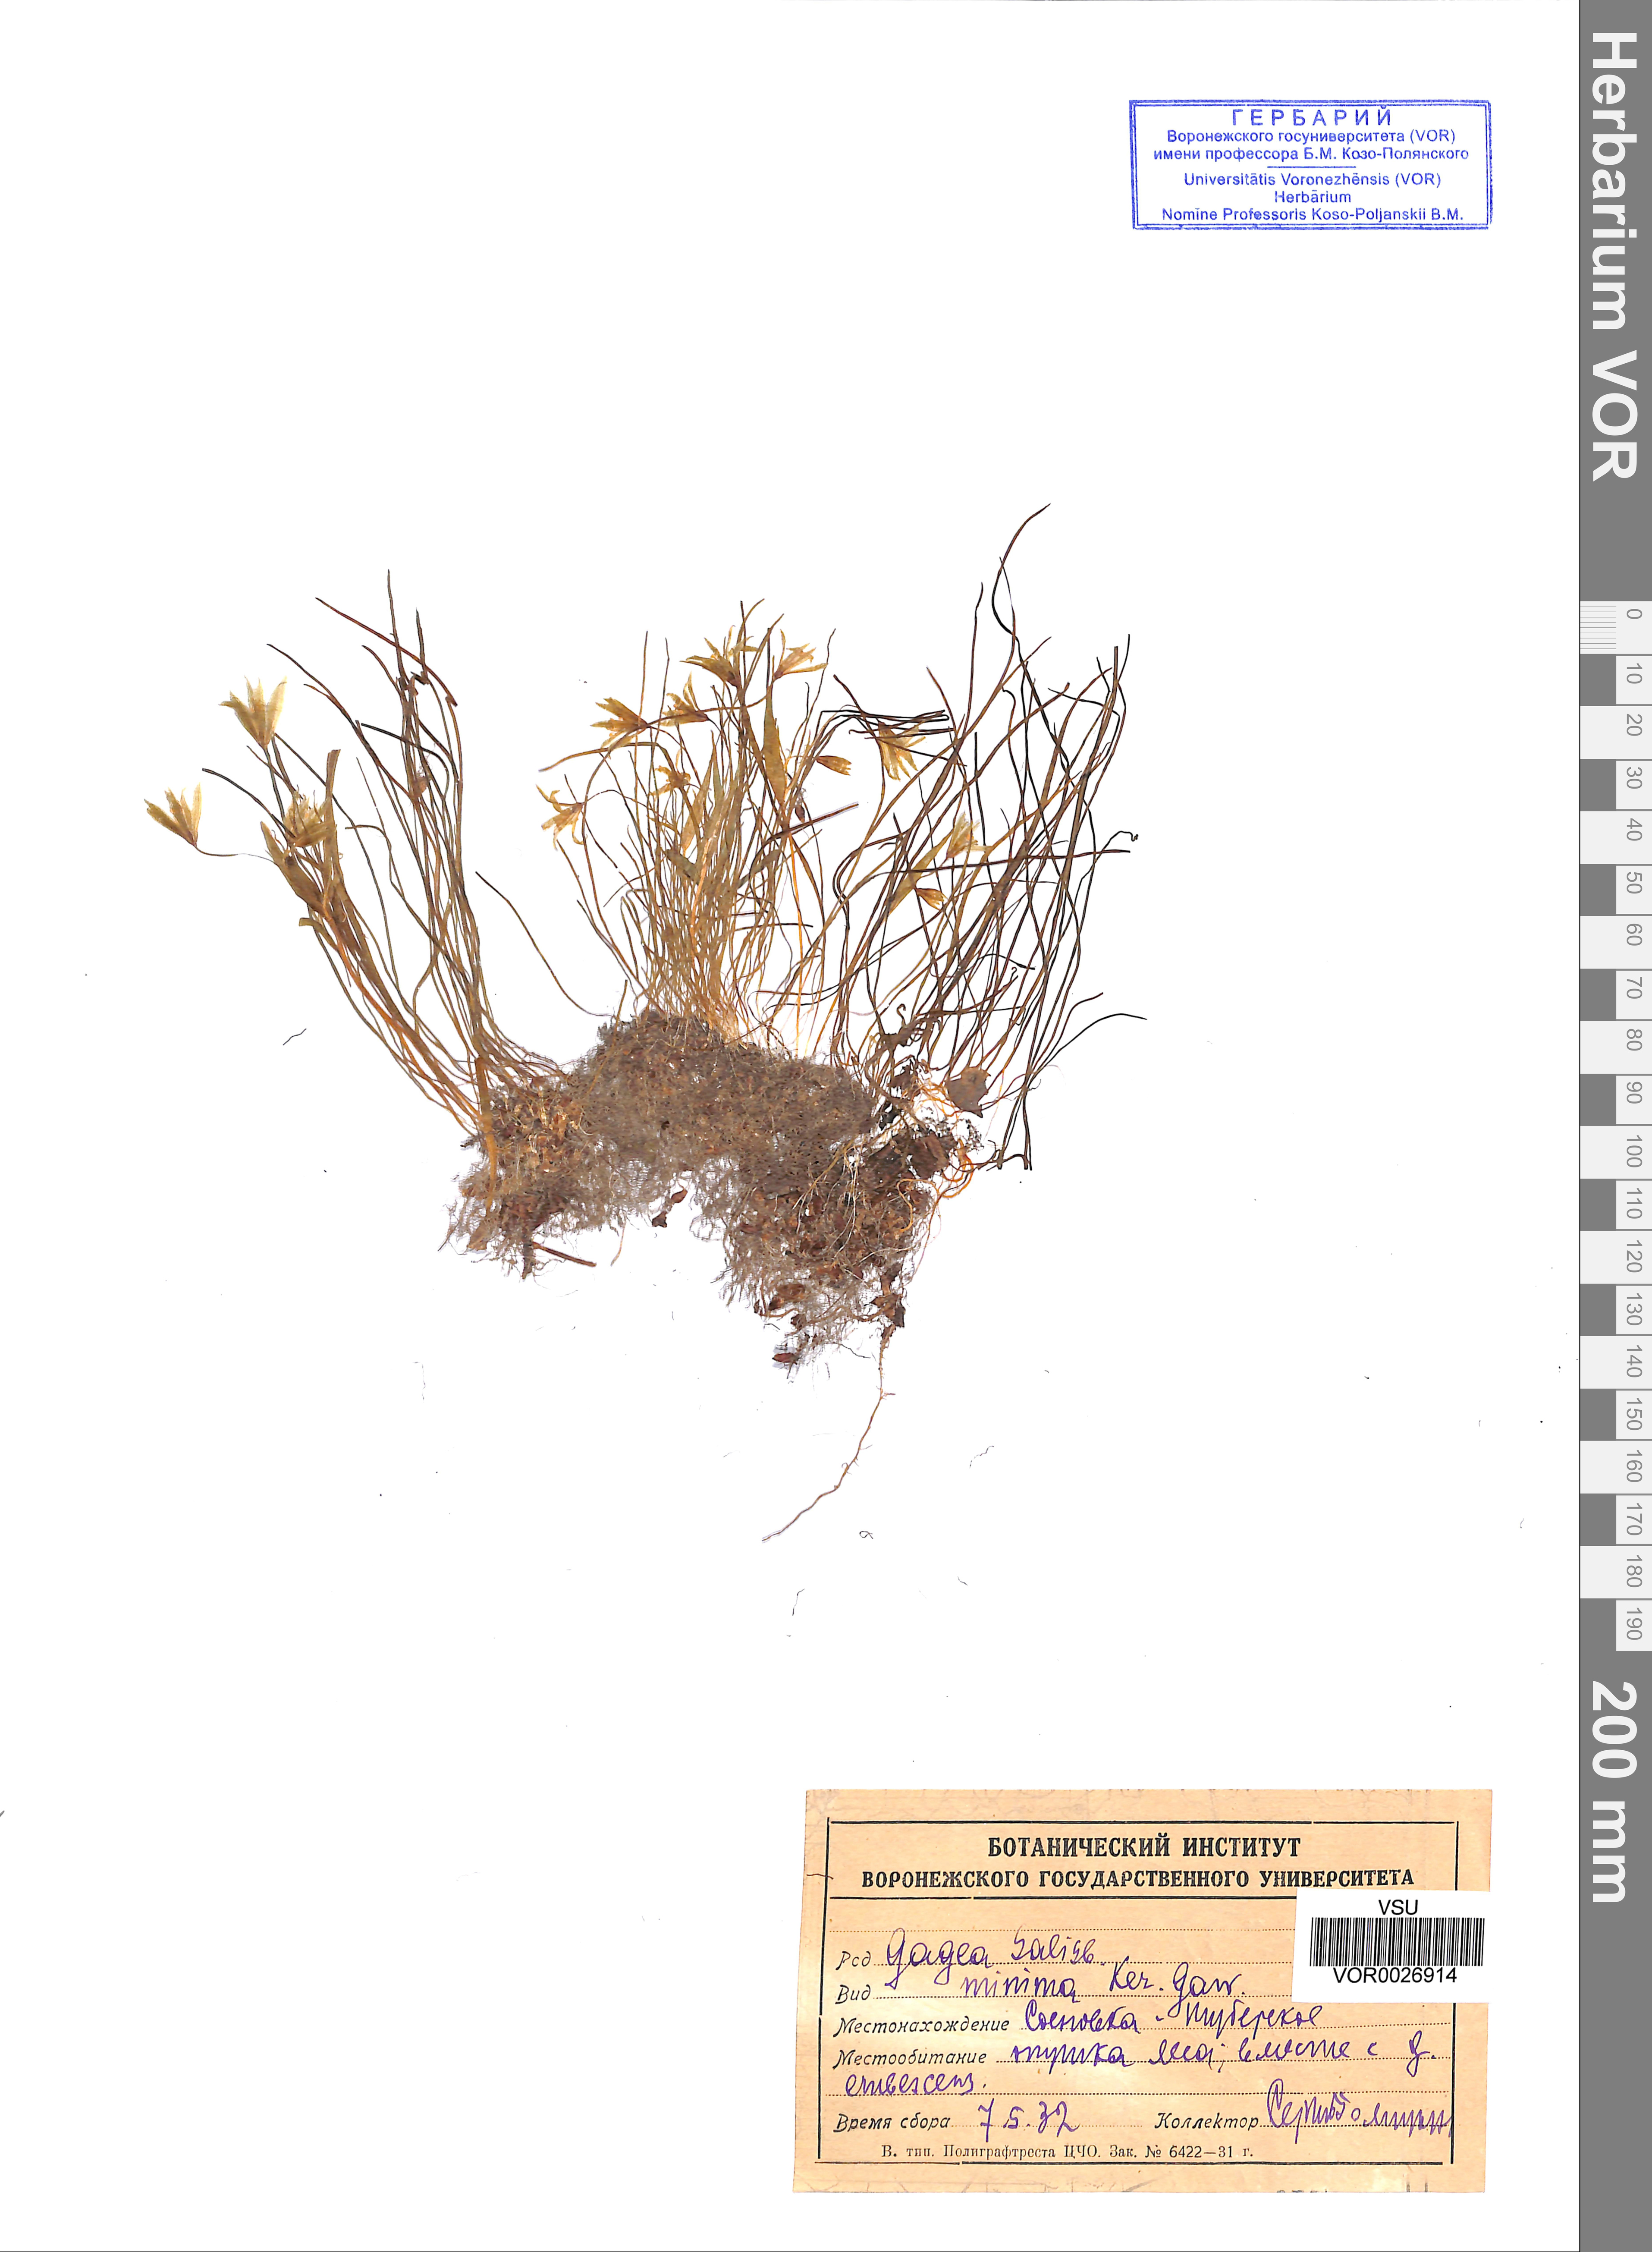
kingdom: Plantae
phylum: Tracheophyta
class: Liliopsida
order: Liliales
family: Liliaceae
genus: Gagea
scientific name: Gagea minima
